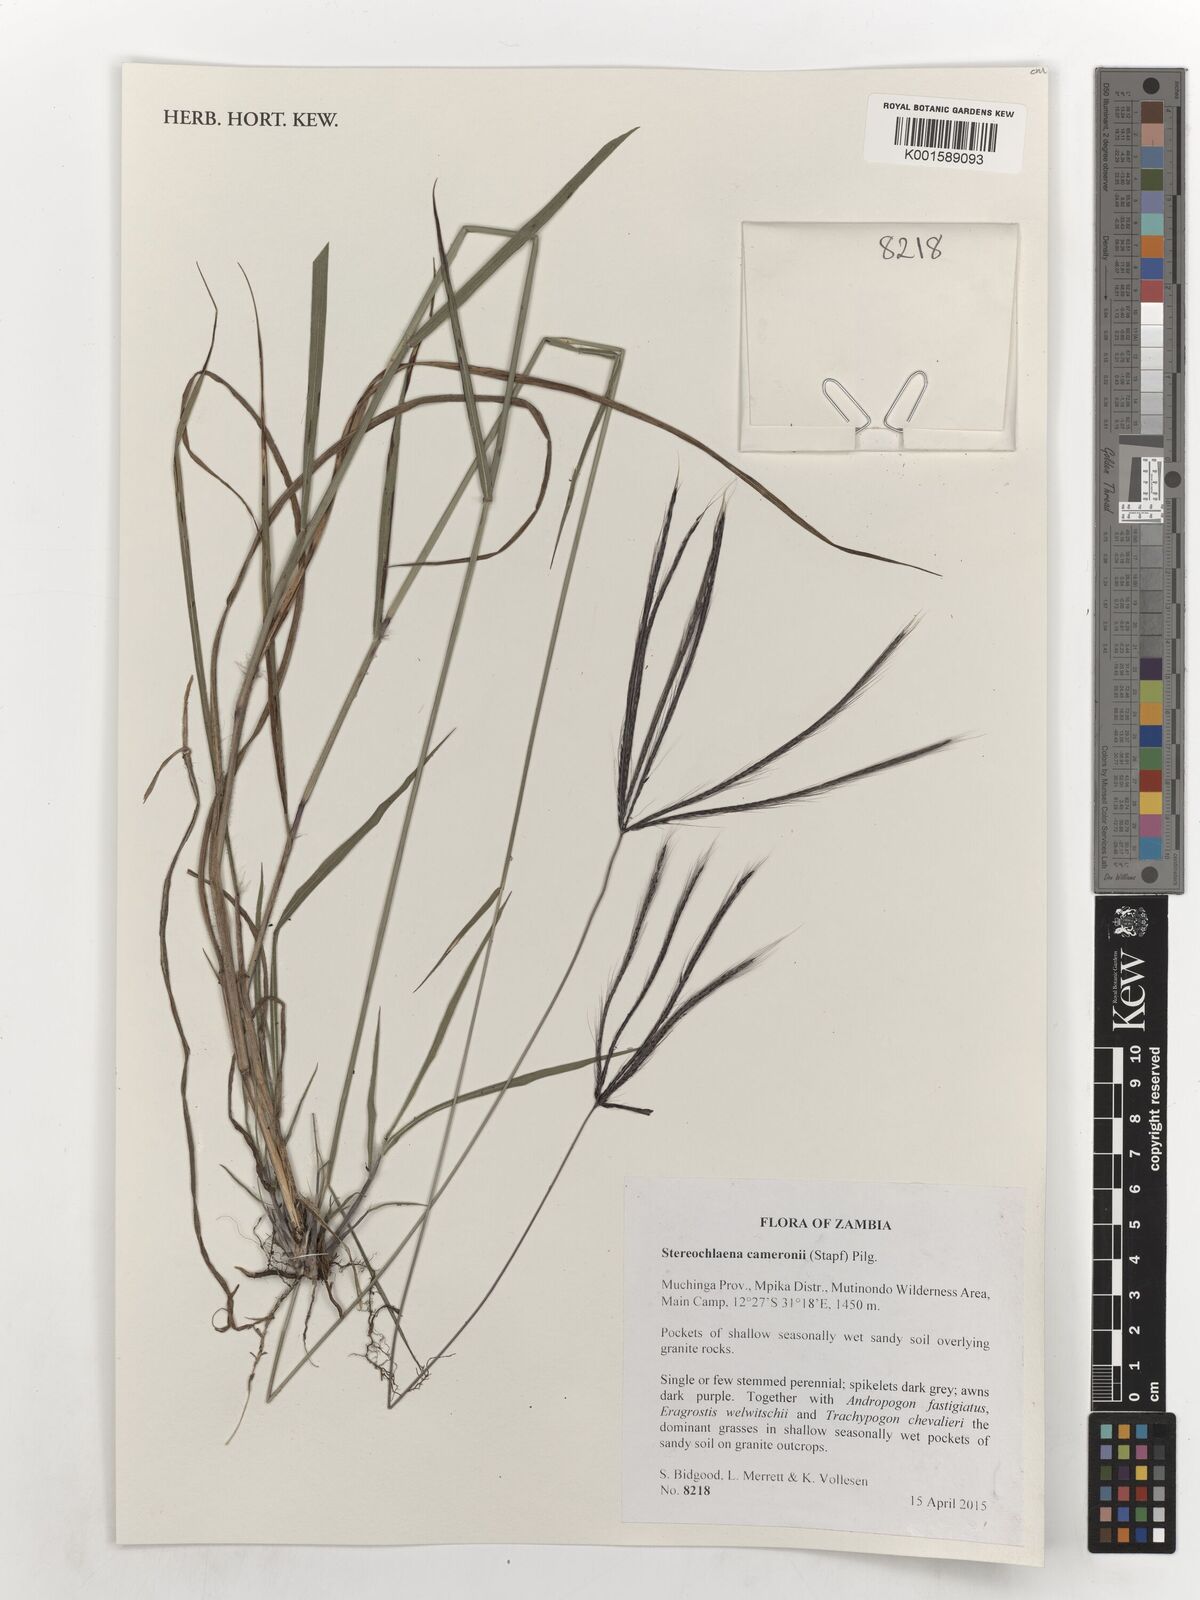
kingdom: Plantae
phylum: Tracheophyta
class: Liliopsida
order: Poales
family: Poaceae
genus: Stereochlaena
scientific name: Stereochlaena cameronii
